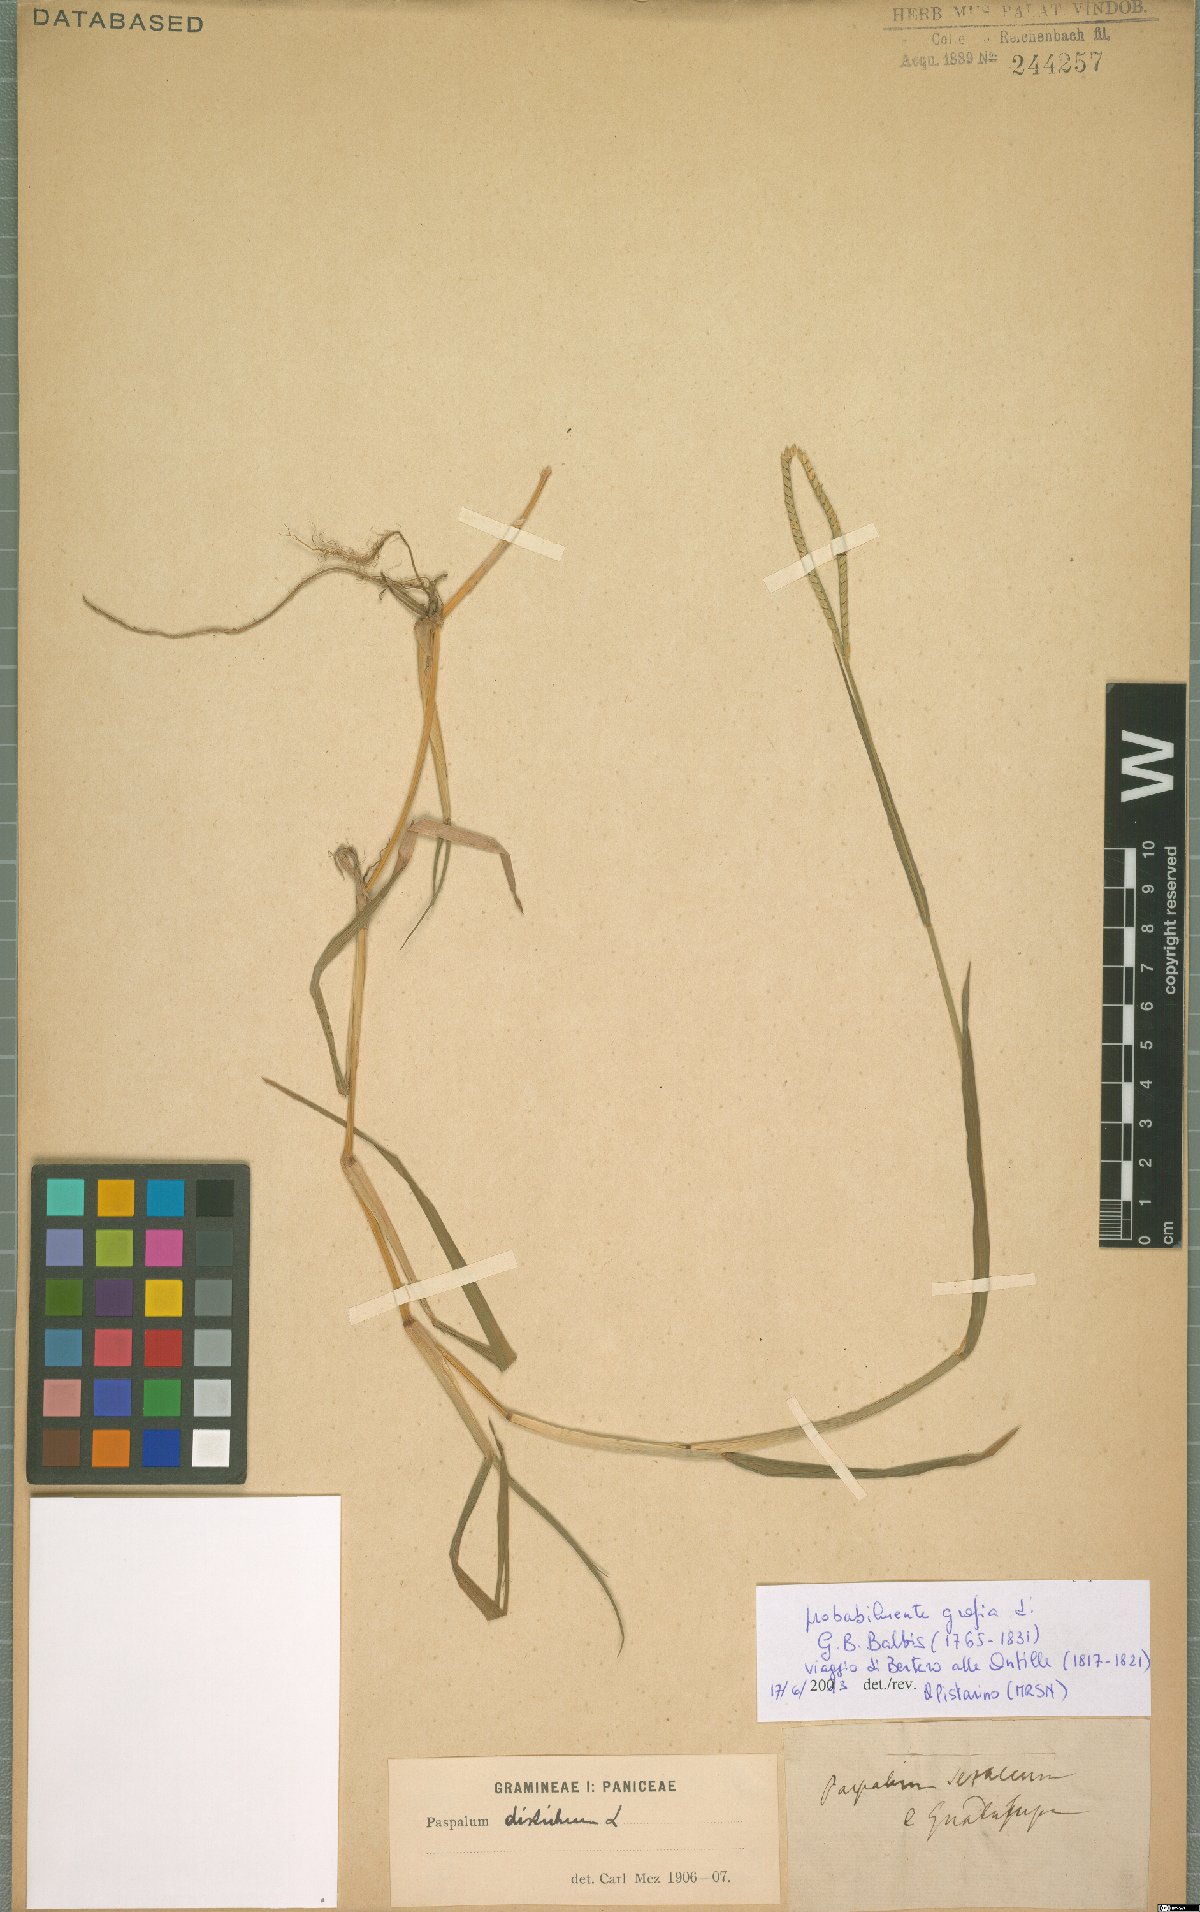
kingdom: Plantae
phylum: Tracheophyta
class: Liliopsida
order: Poales
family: Poaceae
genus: Paspalum
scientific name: Paspalum distichum
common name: Knotgrass
